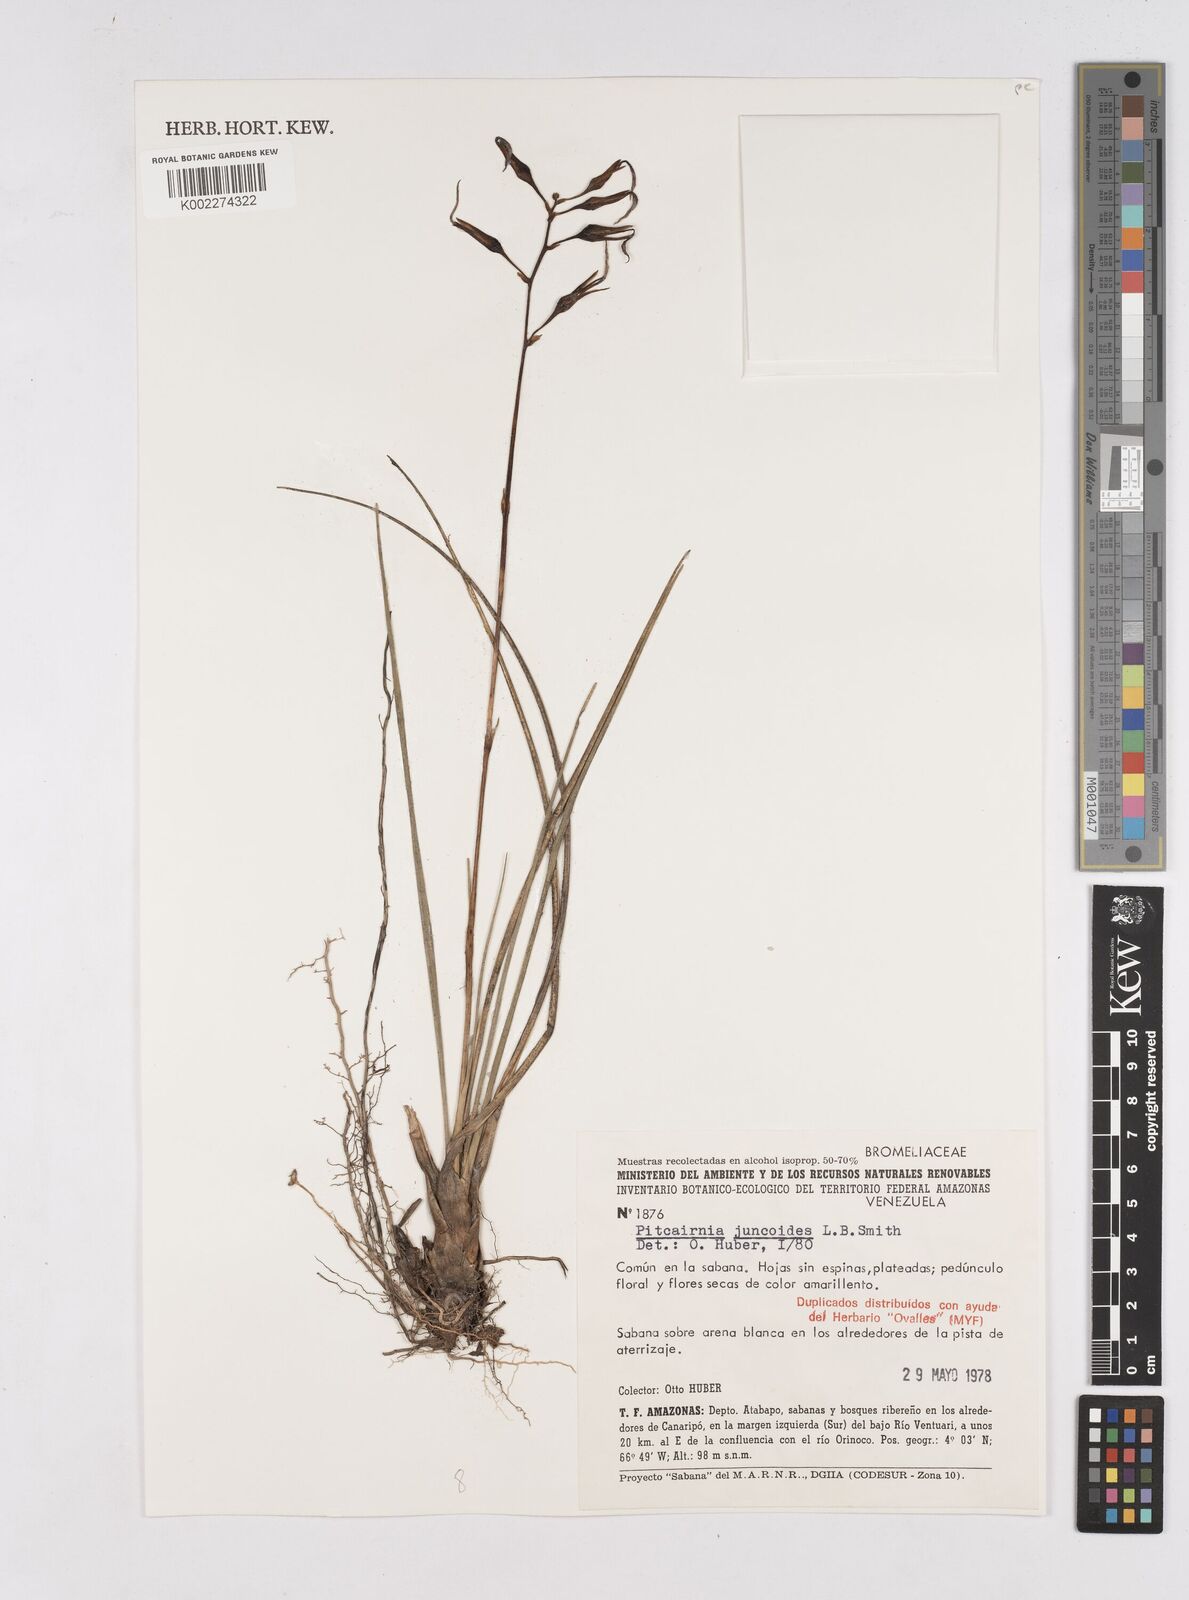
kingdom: Plantae
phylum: Tracheophyta
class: Liliopsida
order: Poales
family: Bromeliaceae
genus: Pitcairnia
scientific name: Pitcairnia juncoides
